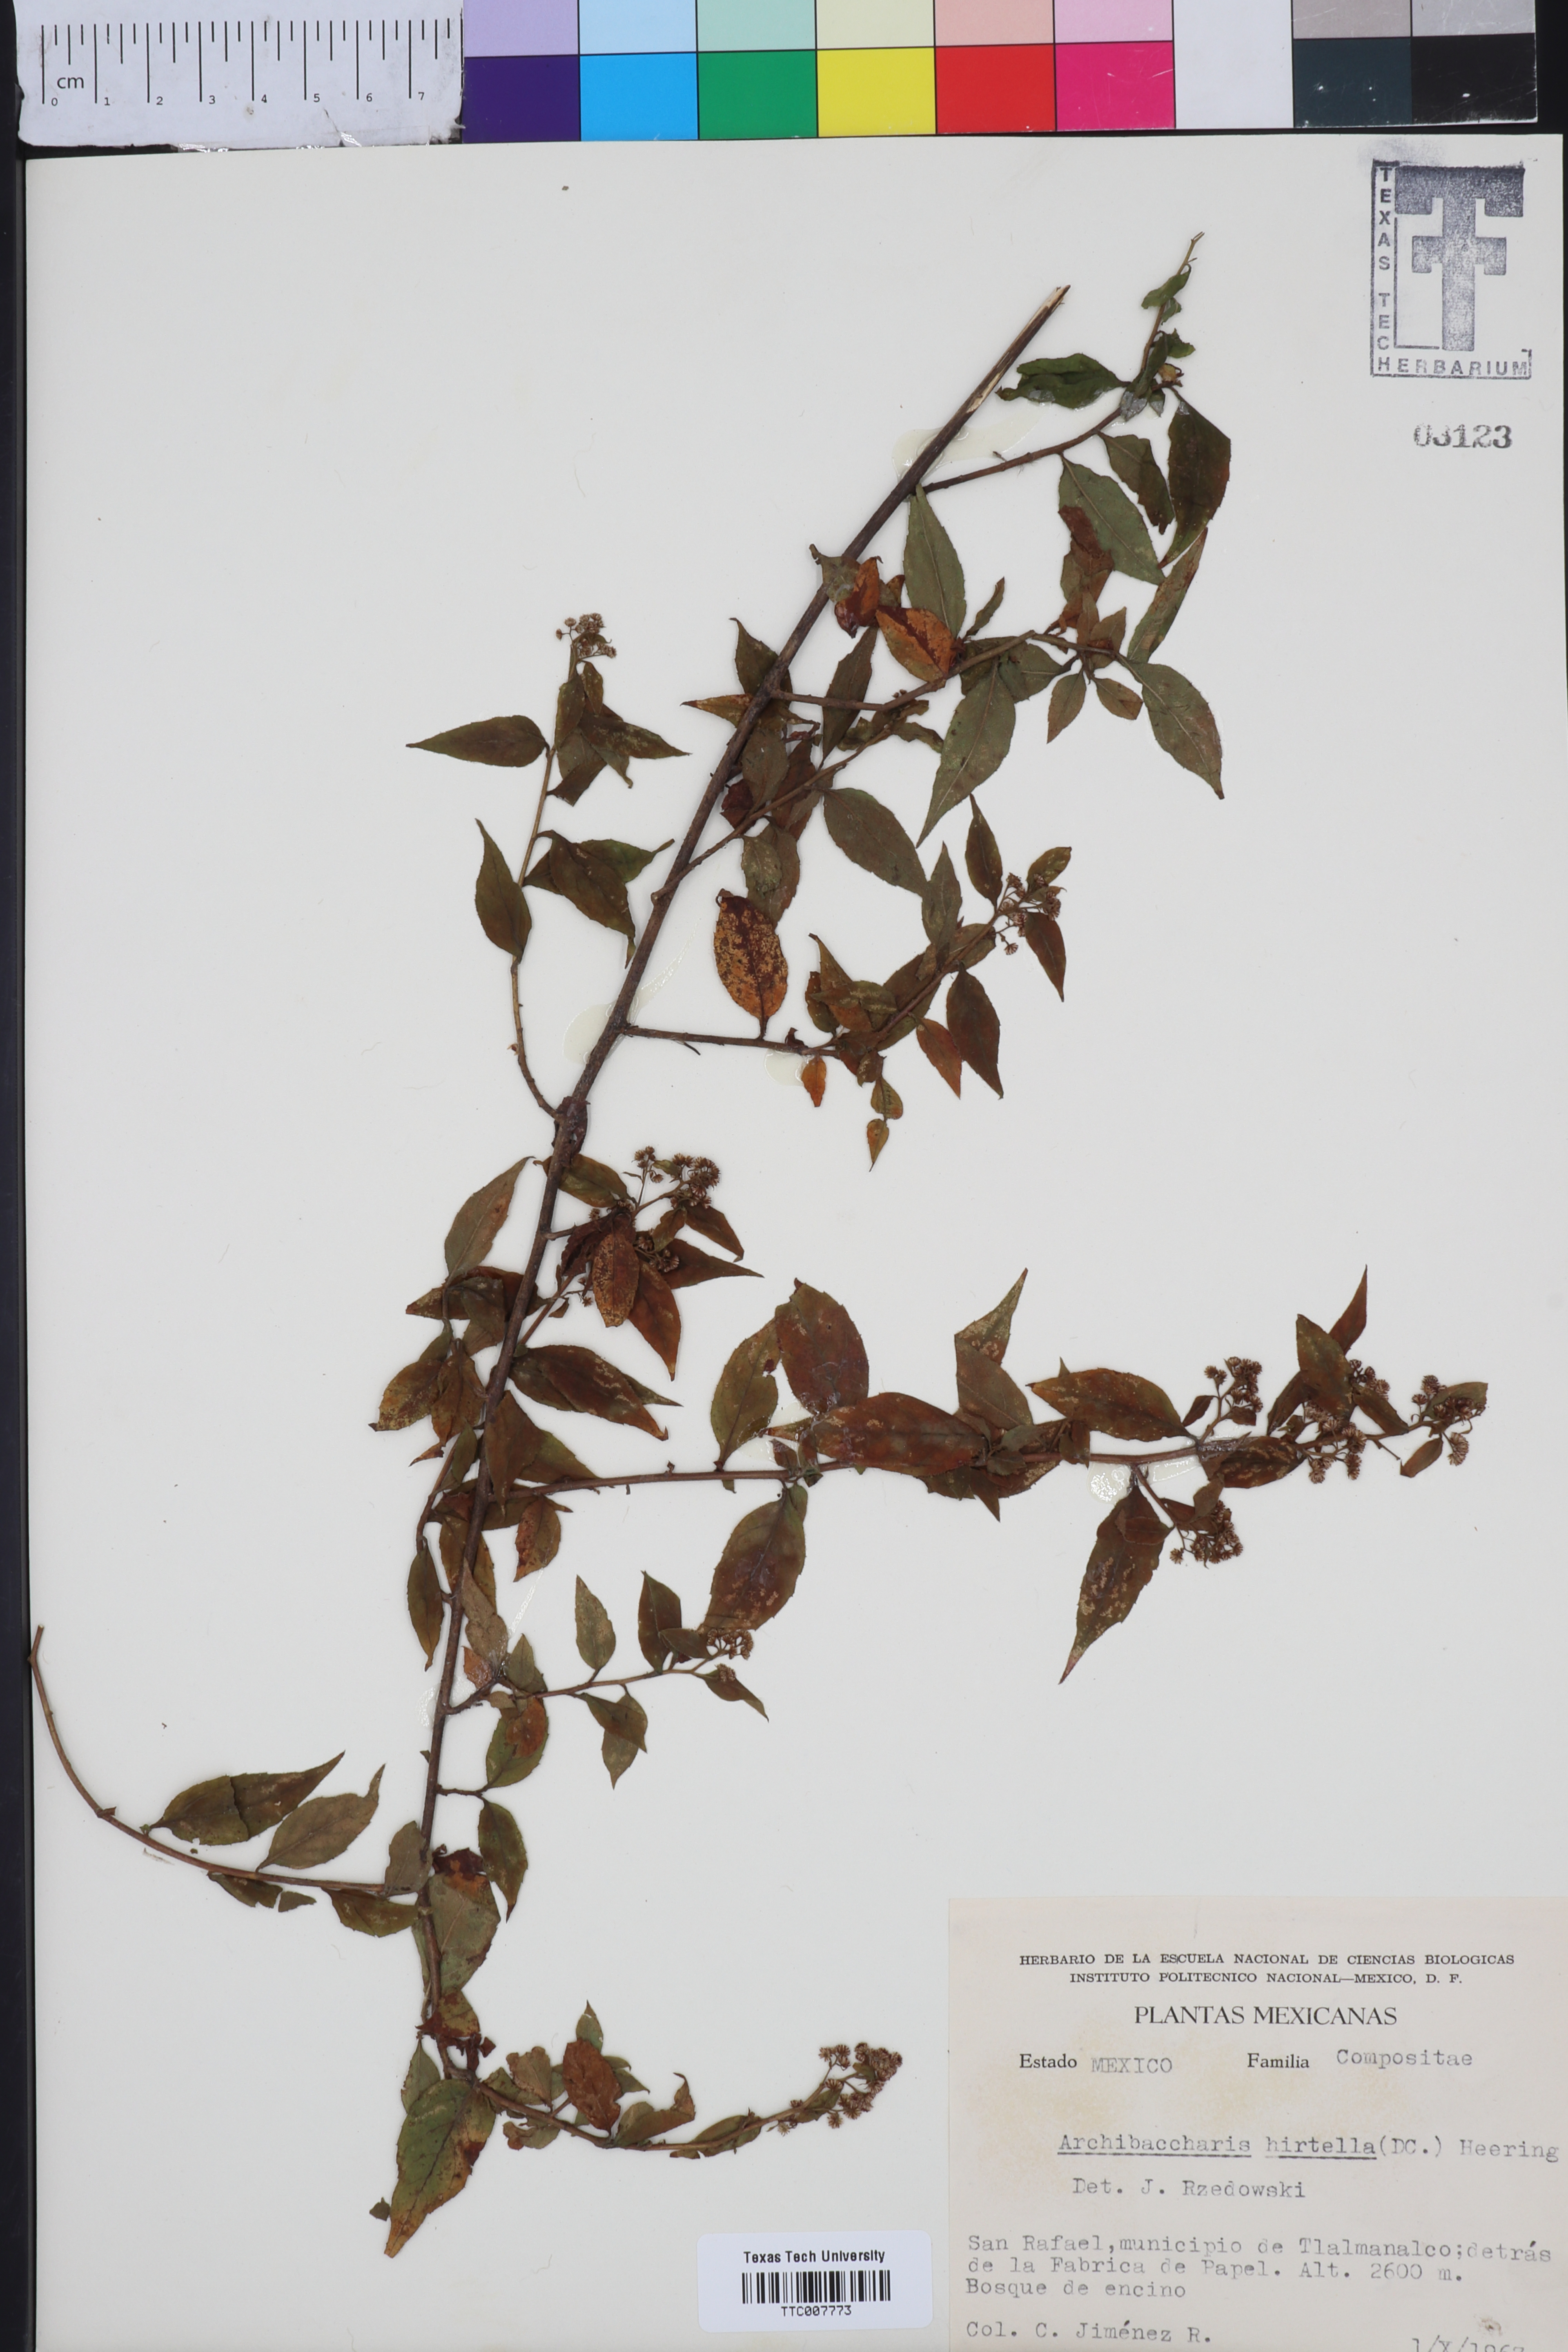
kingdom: Plantae
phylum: Tracheophyta
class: Magnoliopsida
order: Asterales
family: Asteraceae
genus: Archibaccharis
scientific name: Archibaccharis hirtella
